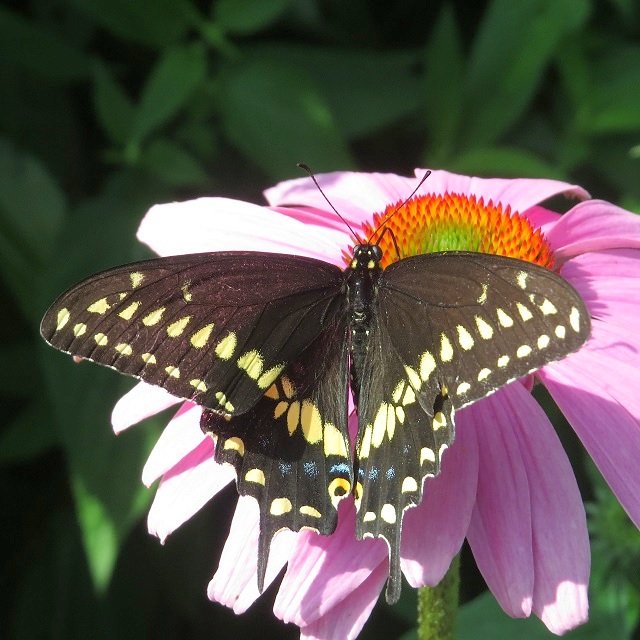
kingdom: Animalia
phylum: Arthropoda
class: Insecta
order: Lepidoptera
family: Papilionidae
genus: Papilio
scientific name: Papilio polyxenes
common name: Black Swallowtail
